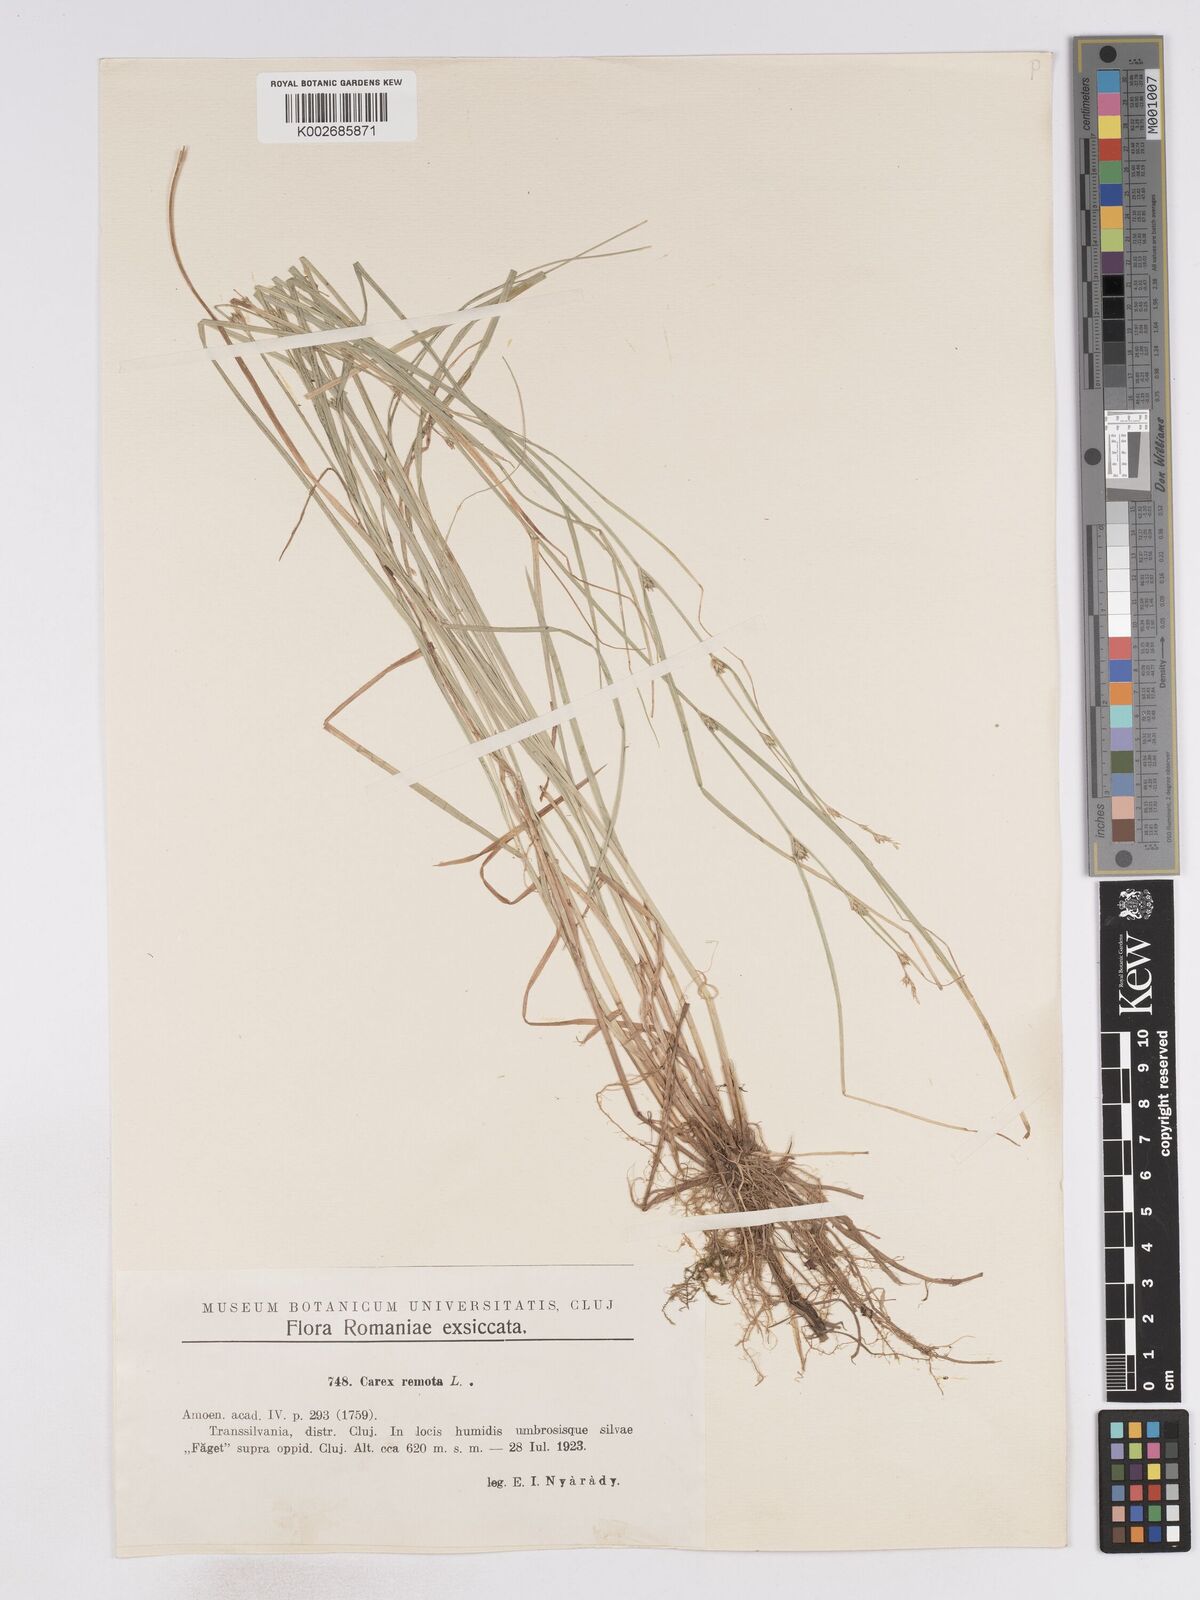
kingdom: Plantae
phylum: Tracheophyta
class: Liliopsida
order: Poales
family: Cyperaceae
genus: Carex
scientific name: Carex remota
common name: Remote sedge
